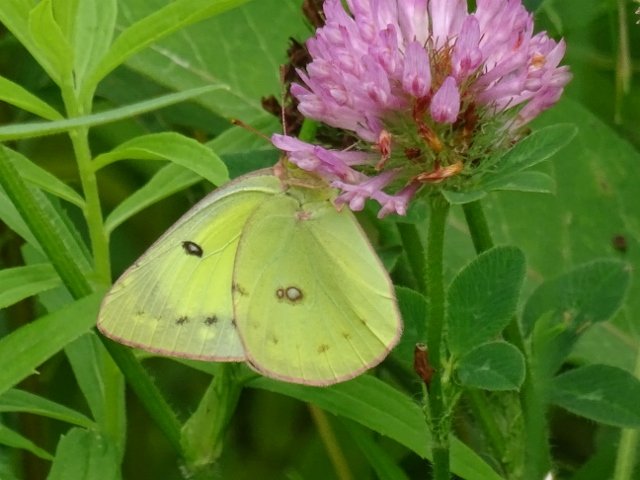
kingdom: Animalia
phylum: Arthropoda
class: Insecta
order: Lepidoptera
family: Pieridae
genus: Colias
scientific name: Colias philodice
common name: Clouded Sulphur
